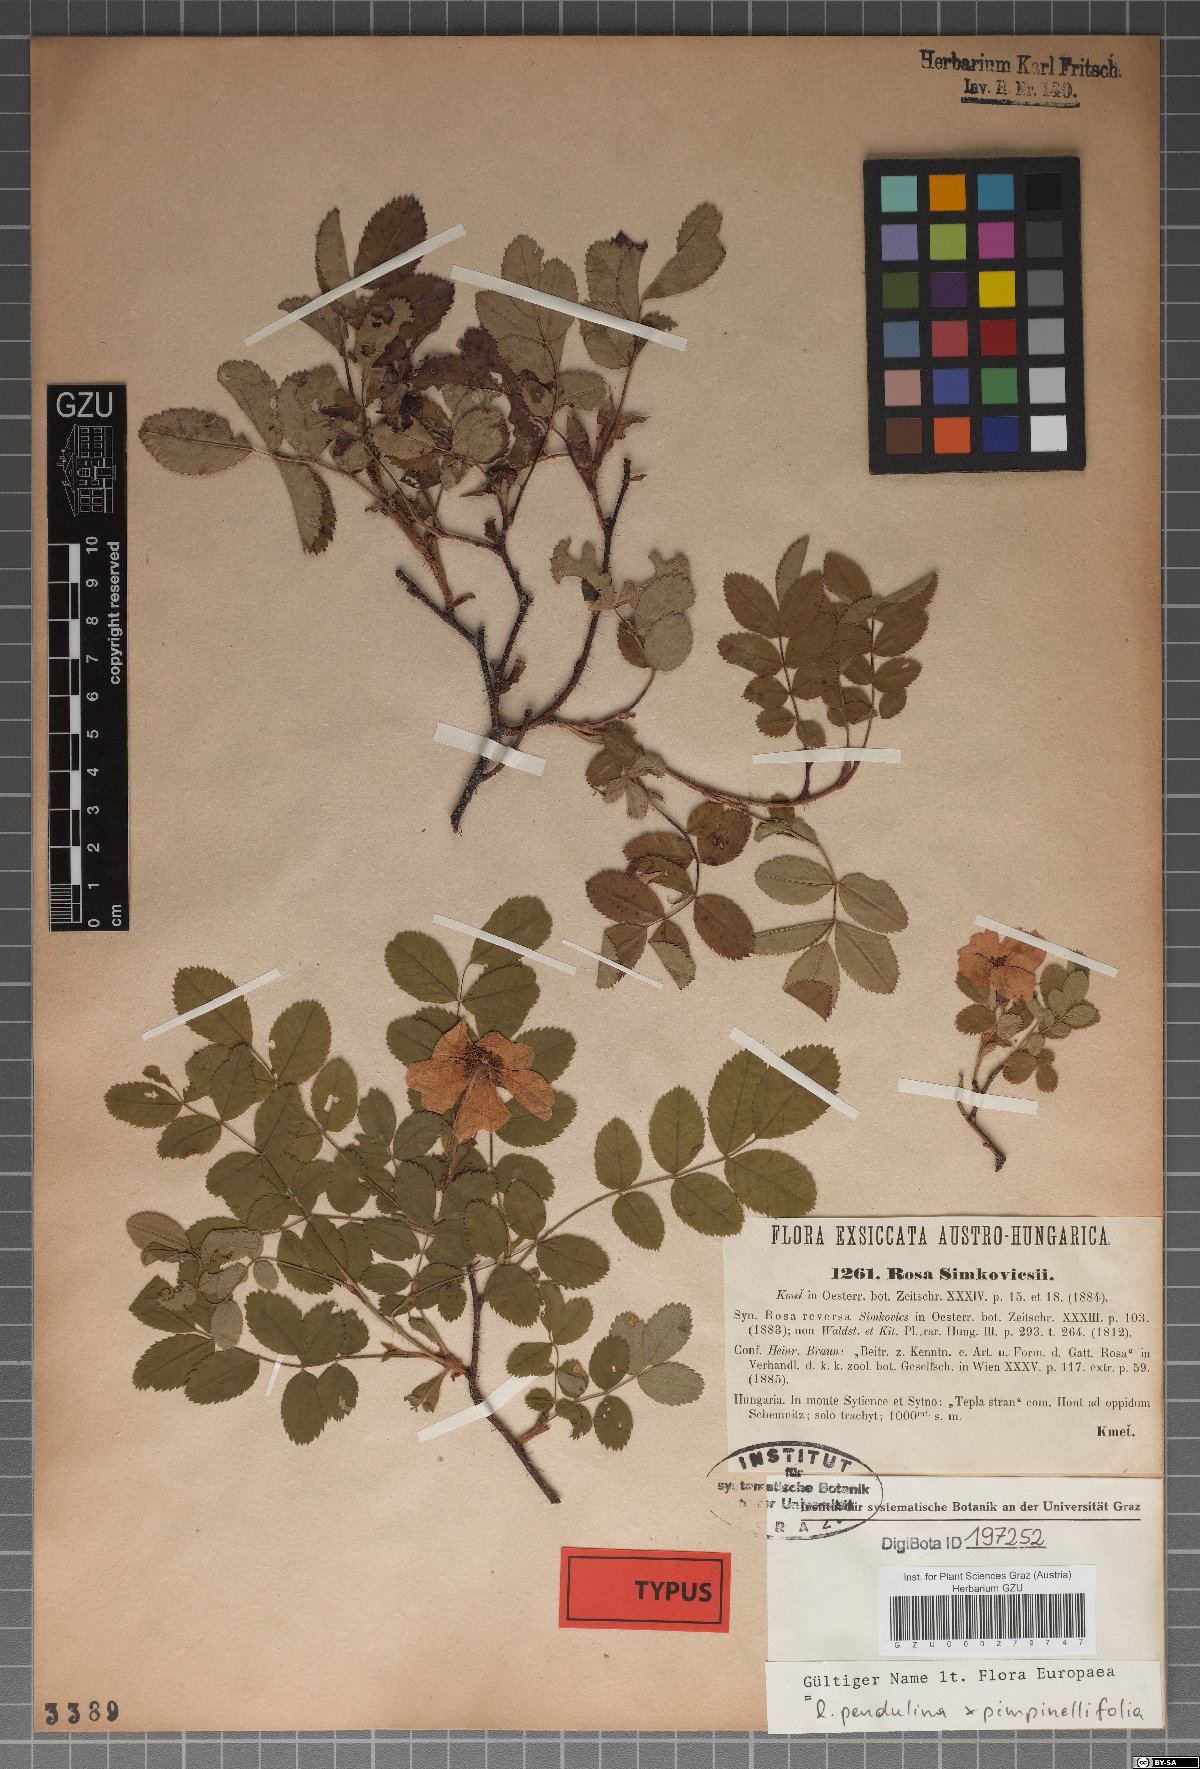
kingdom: Plantae
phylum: Tracheophyta
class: Magnoliopsida
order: Rosales
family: Rosaceae
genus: Rosa
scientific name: Rosa simkovicsii
